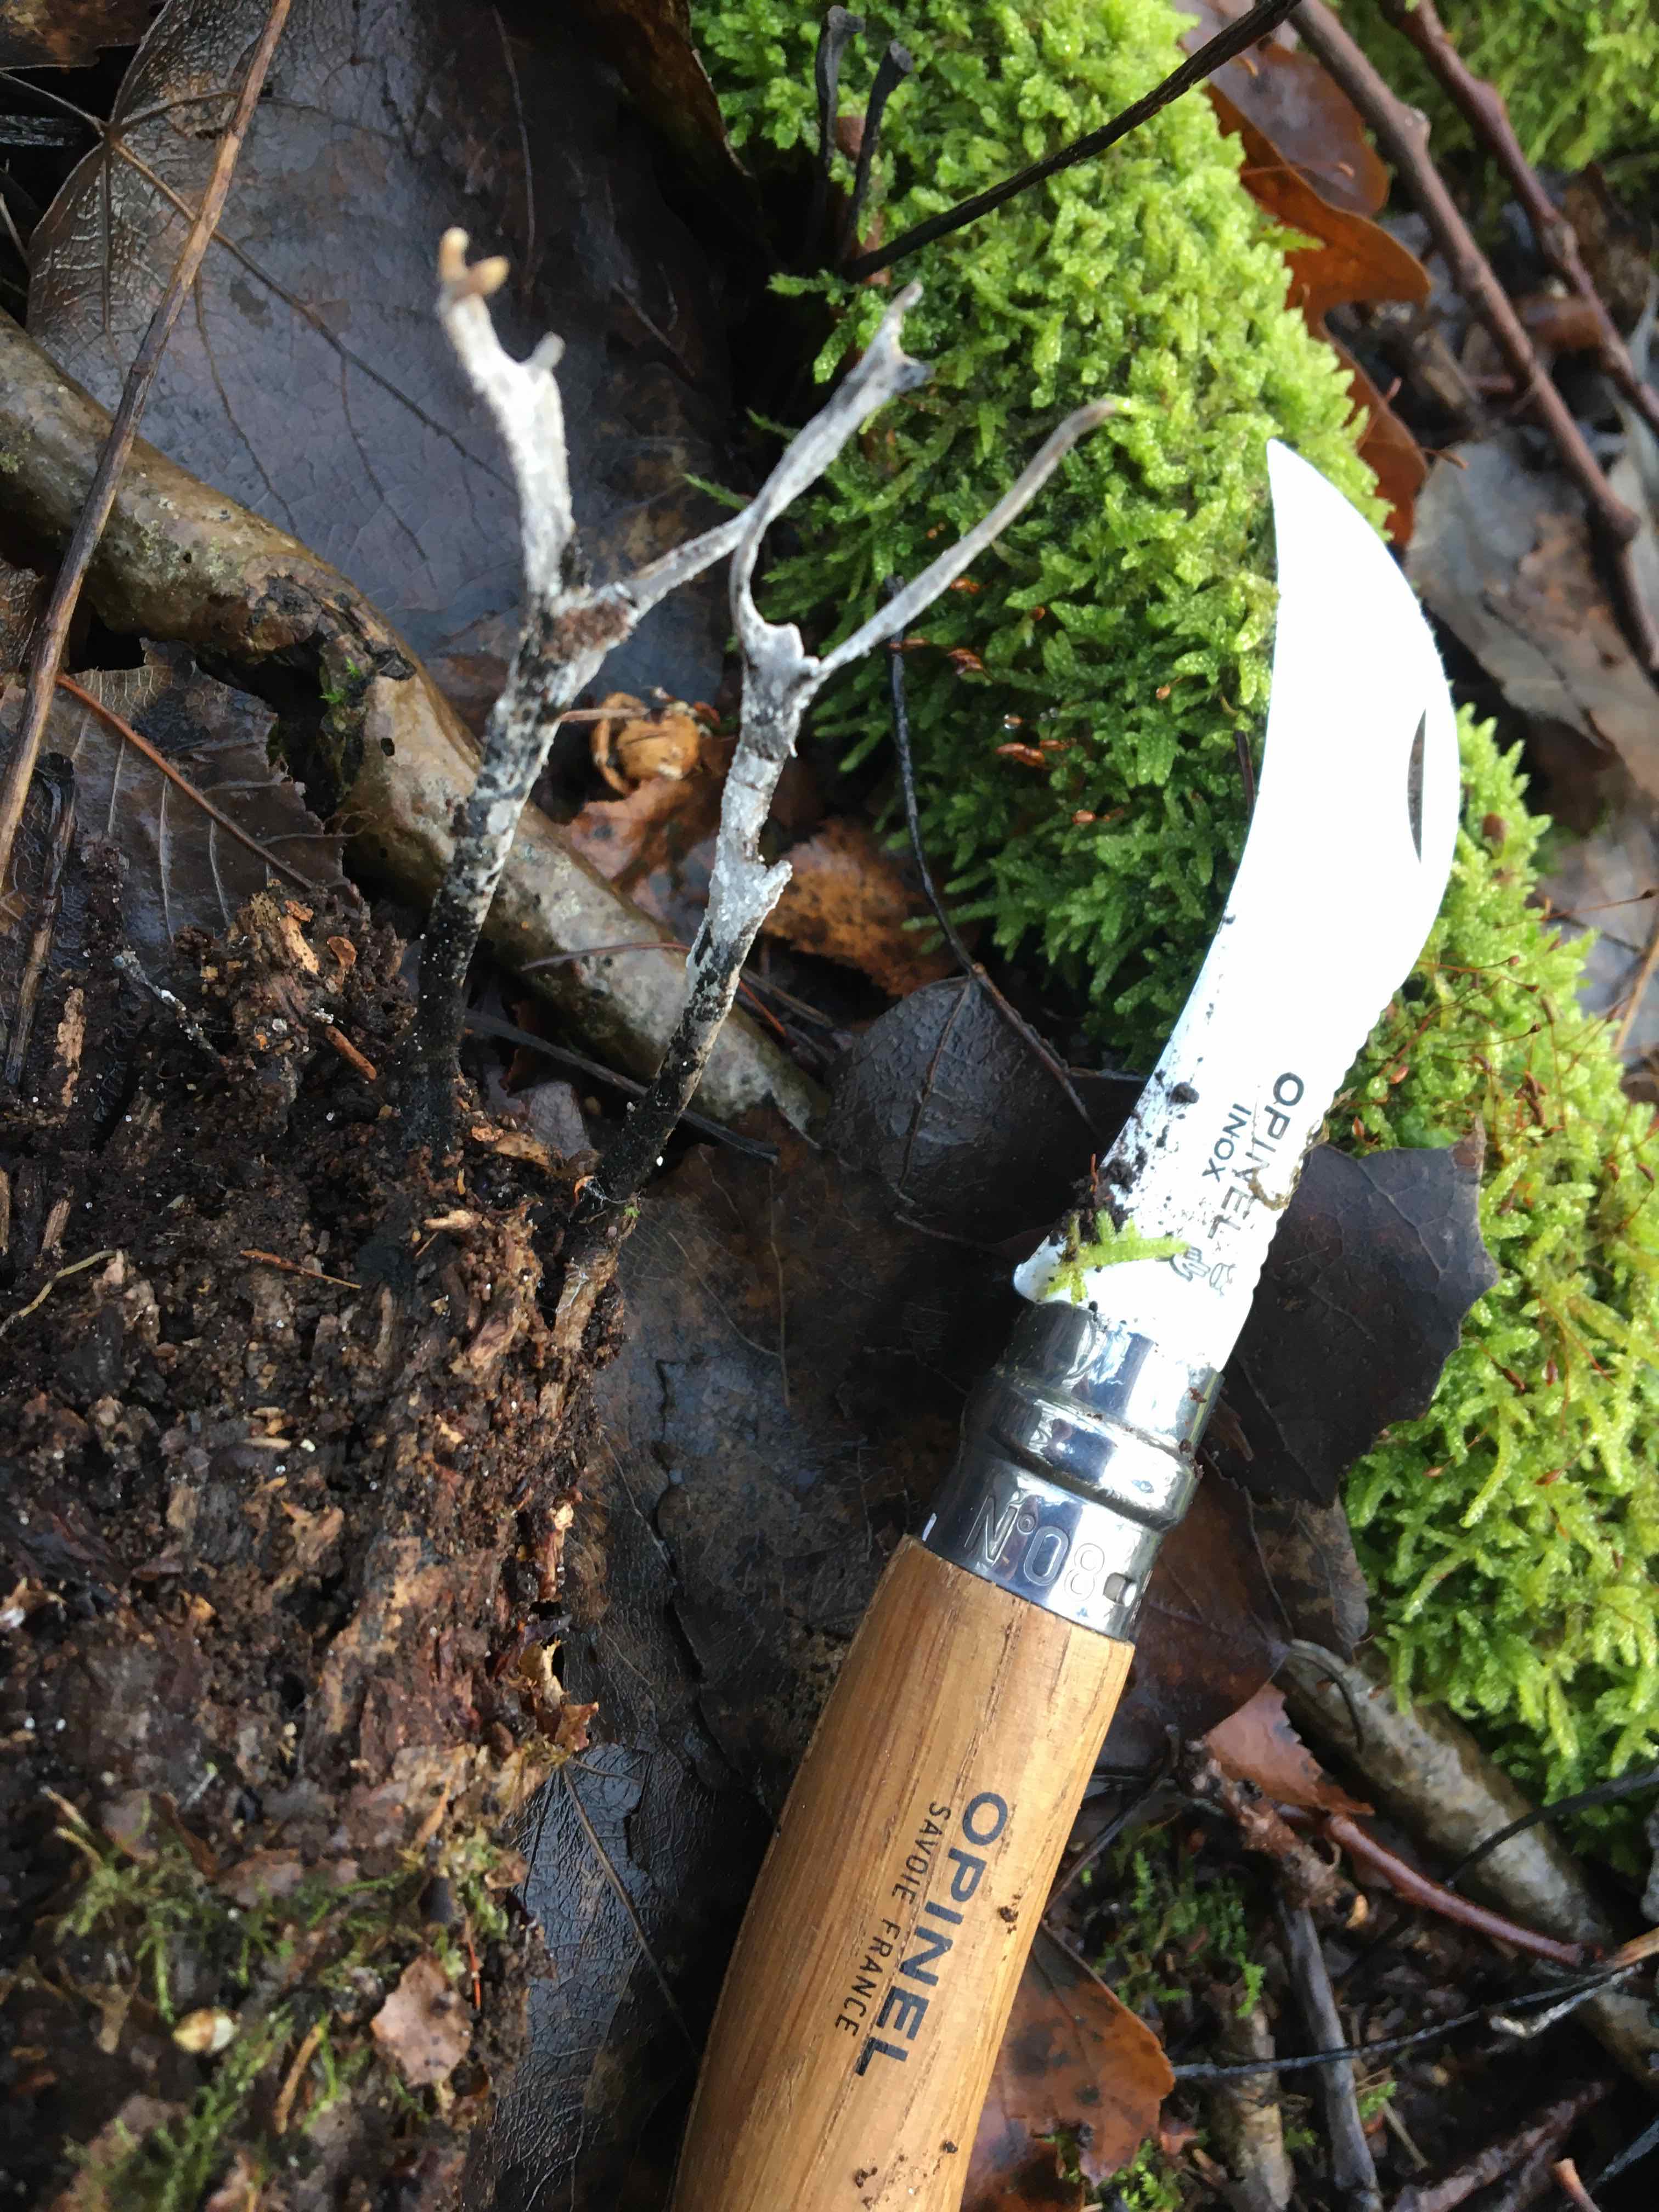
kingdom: Fungi
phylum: Ascomycota
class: Sordariomycetes
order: Xylariales
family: Xylariaceae
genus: Xylaria
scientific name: Xylaria hypoxylon
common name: grenet stødsvamp
